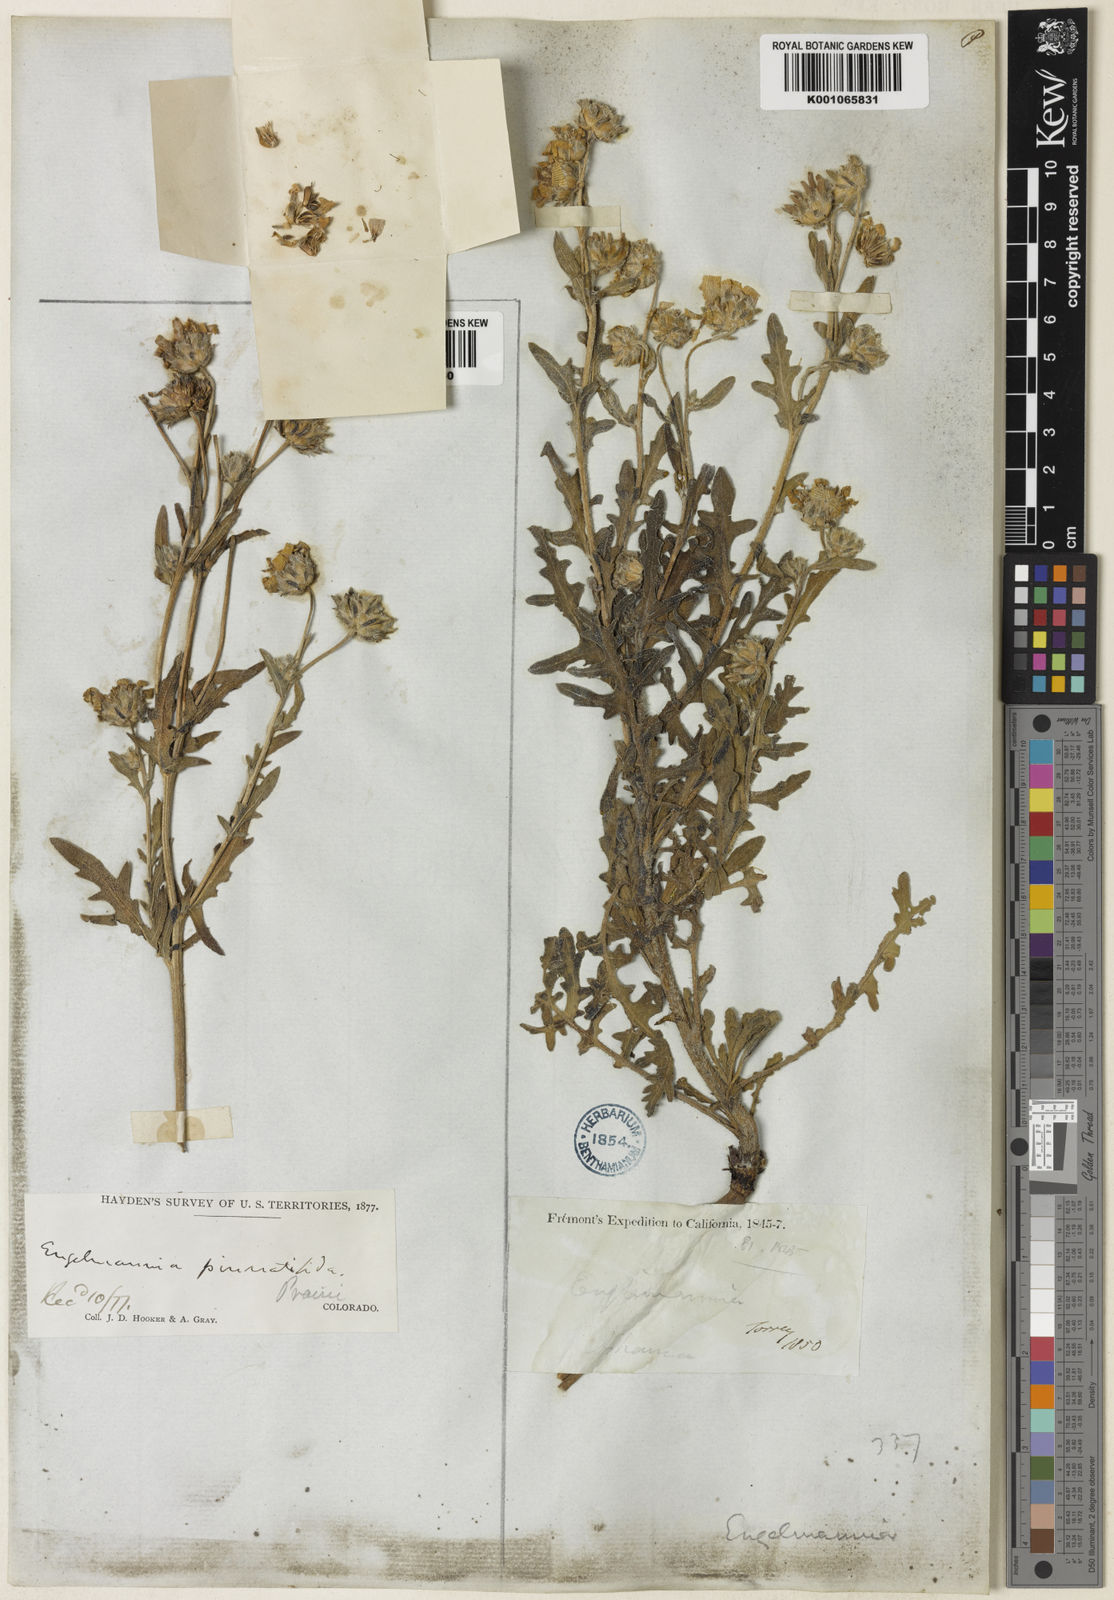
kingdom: Plantae
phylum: Tracheophyta
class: Magnoliopsida
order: Asterales
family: Asteraceae
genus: Engelmannia
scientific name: Engelmannia
